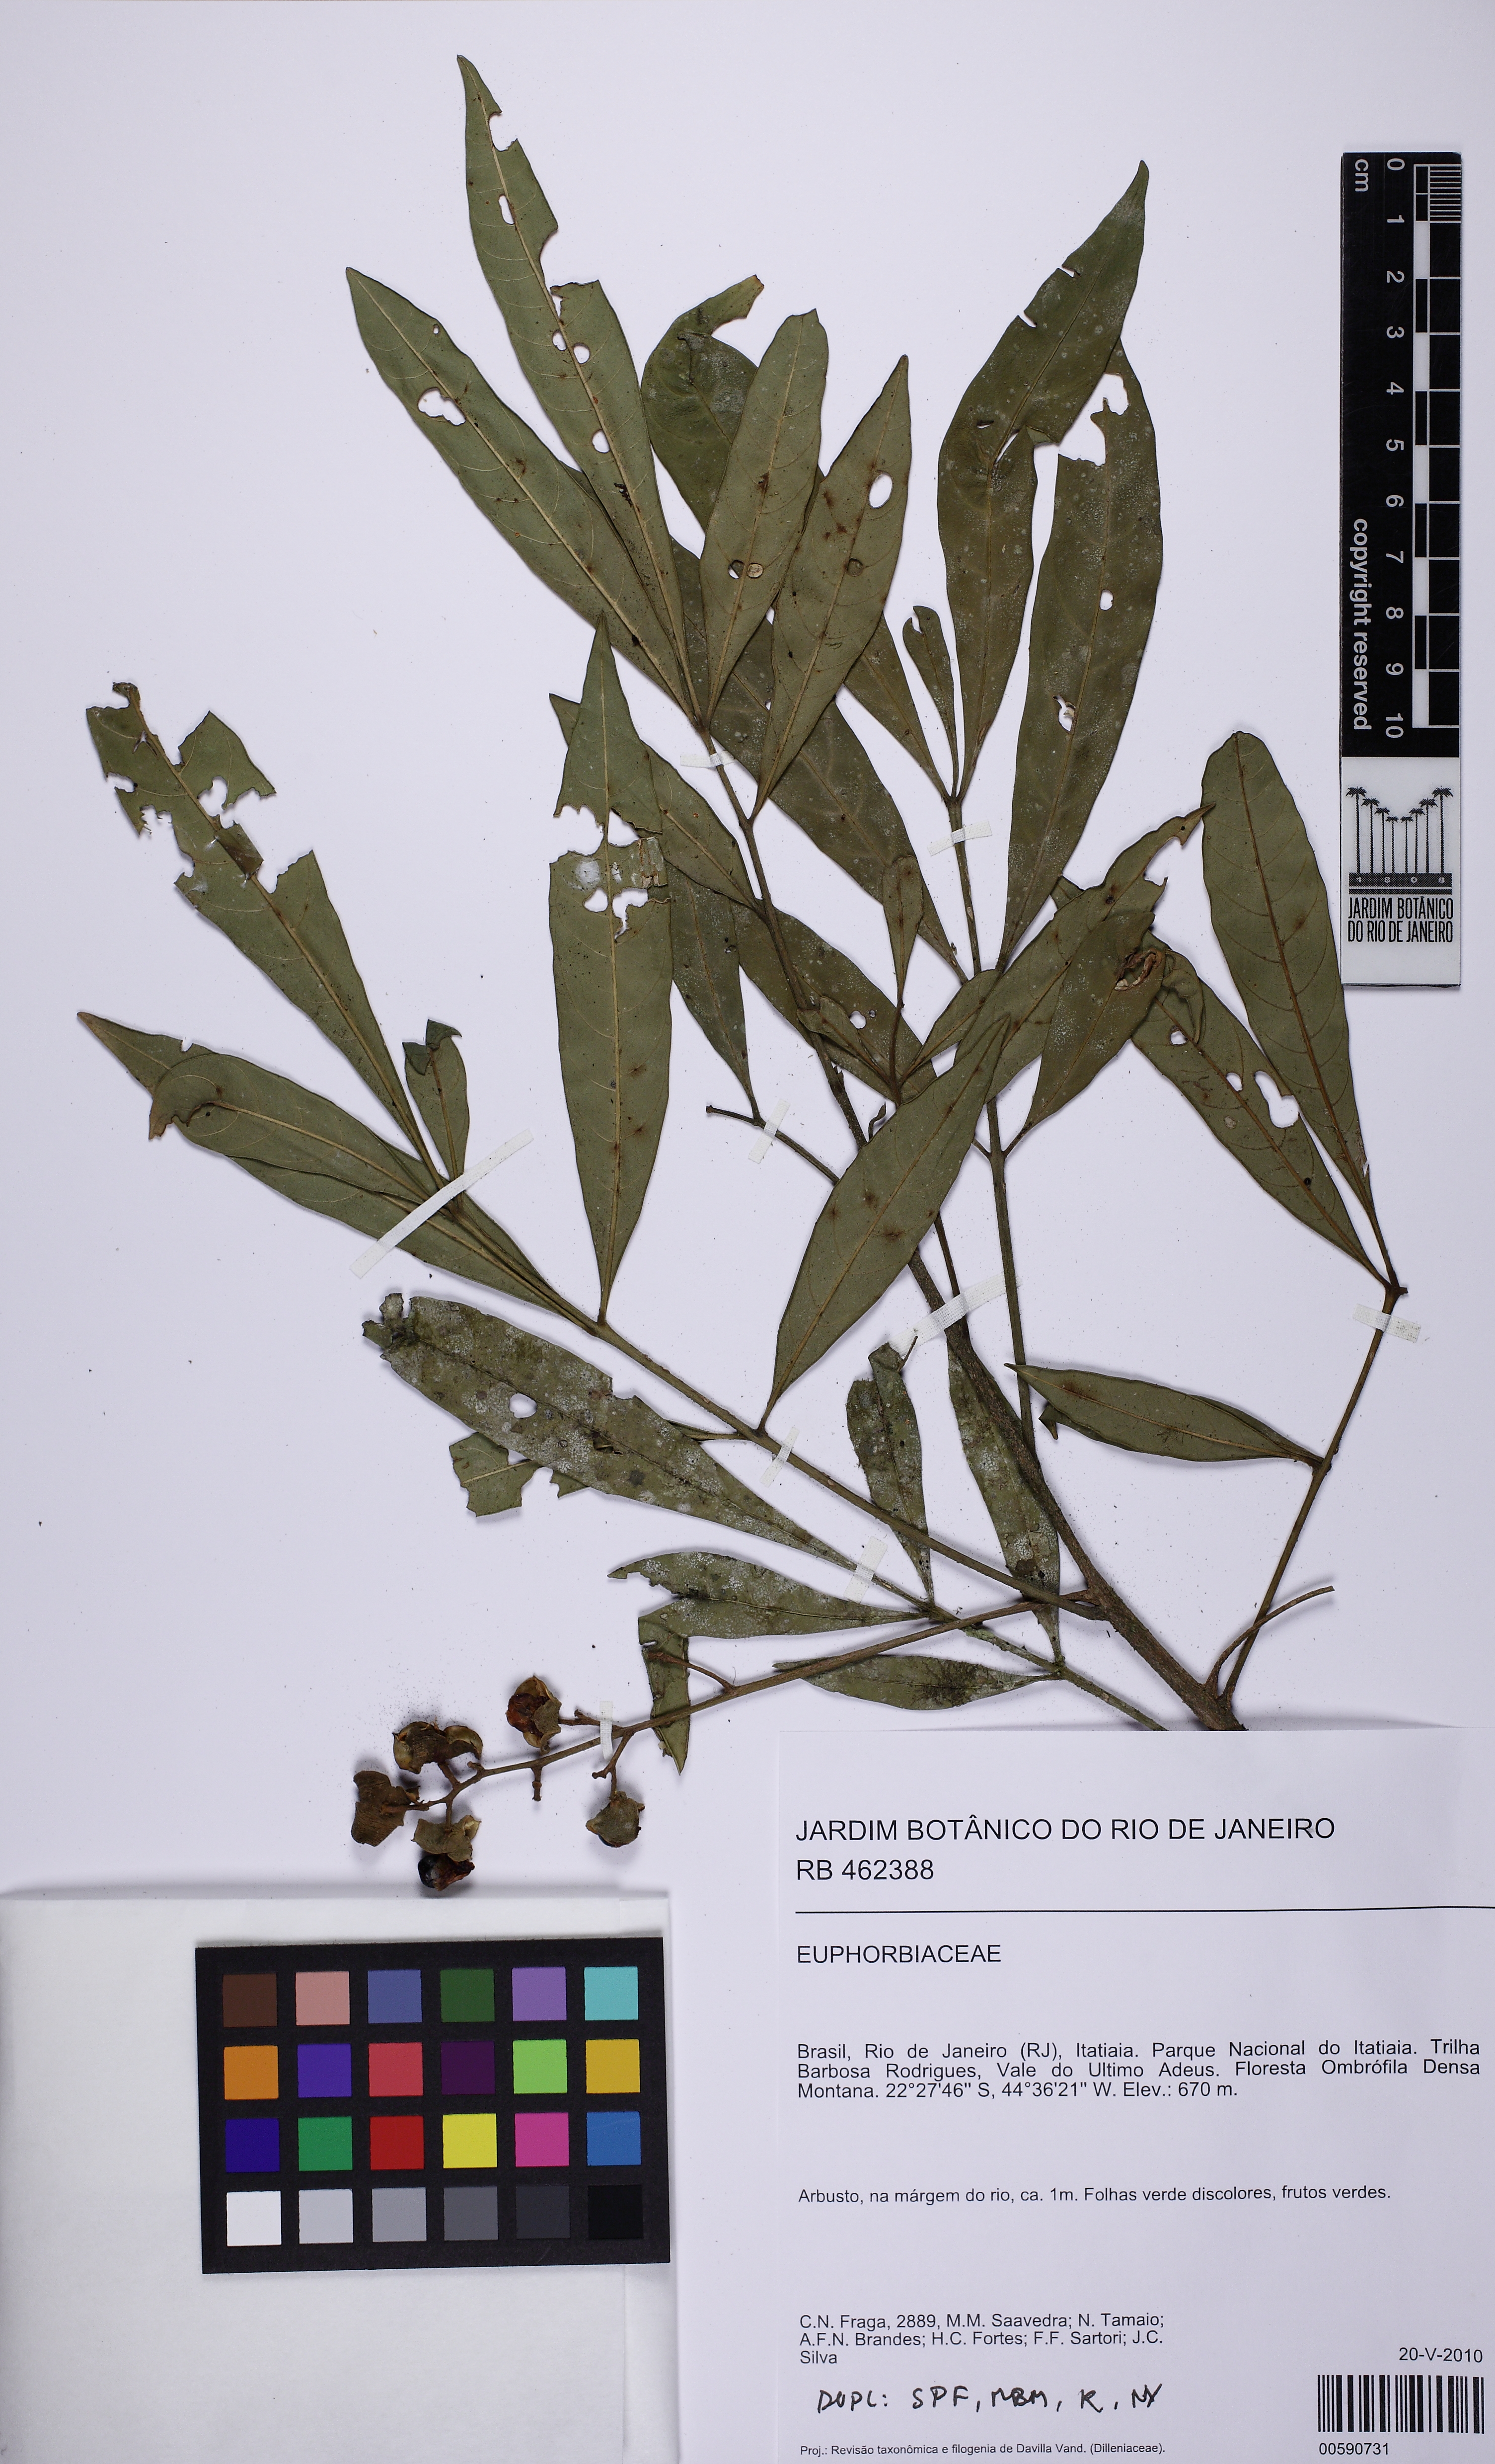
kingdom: Plantae
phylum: Tracheophyta
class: Magnoliopsida
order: Sapindales
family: Sapindaceae
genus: Cupania
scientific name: Cupania
